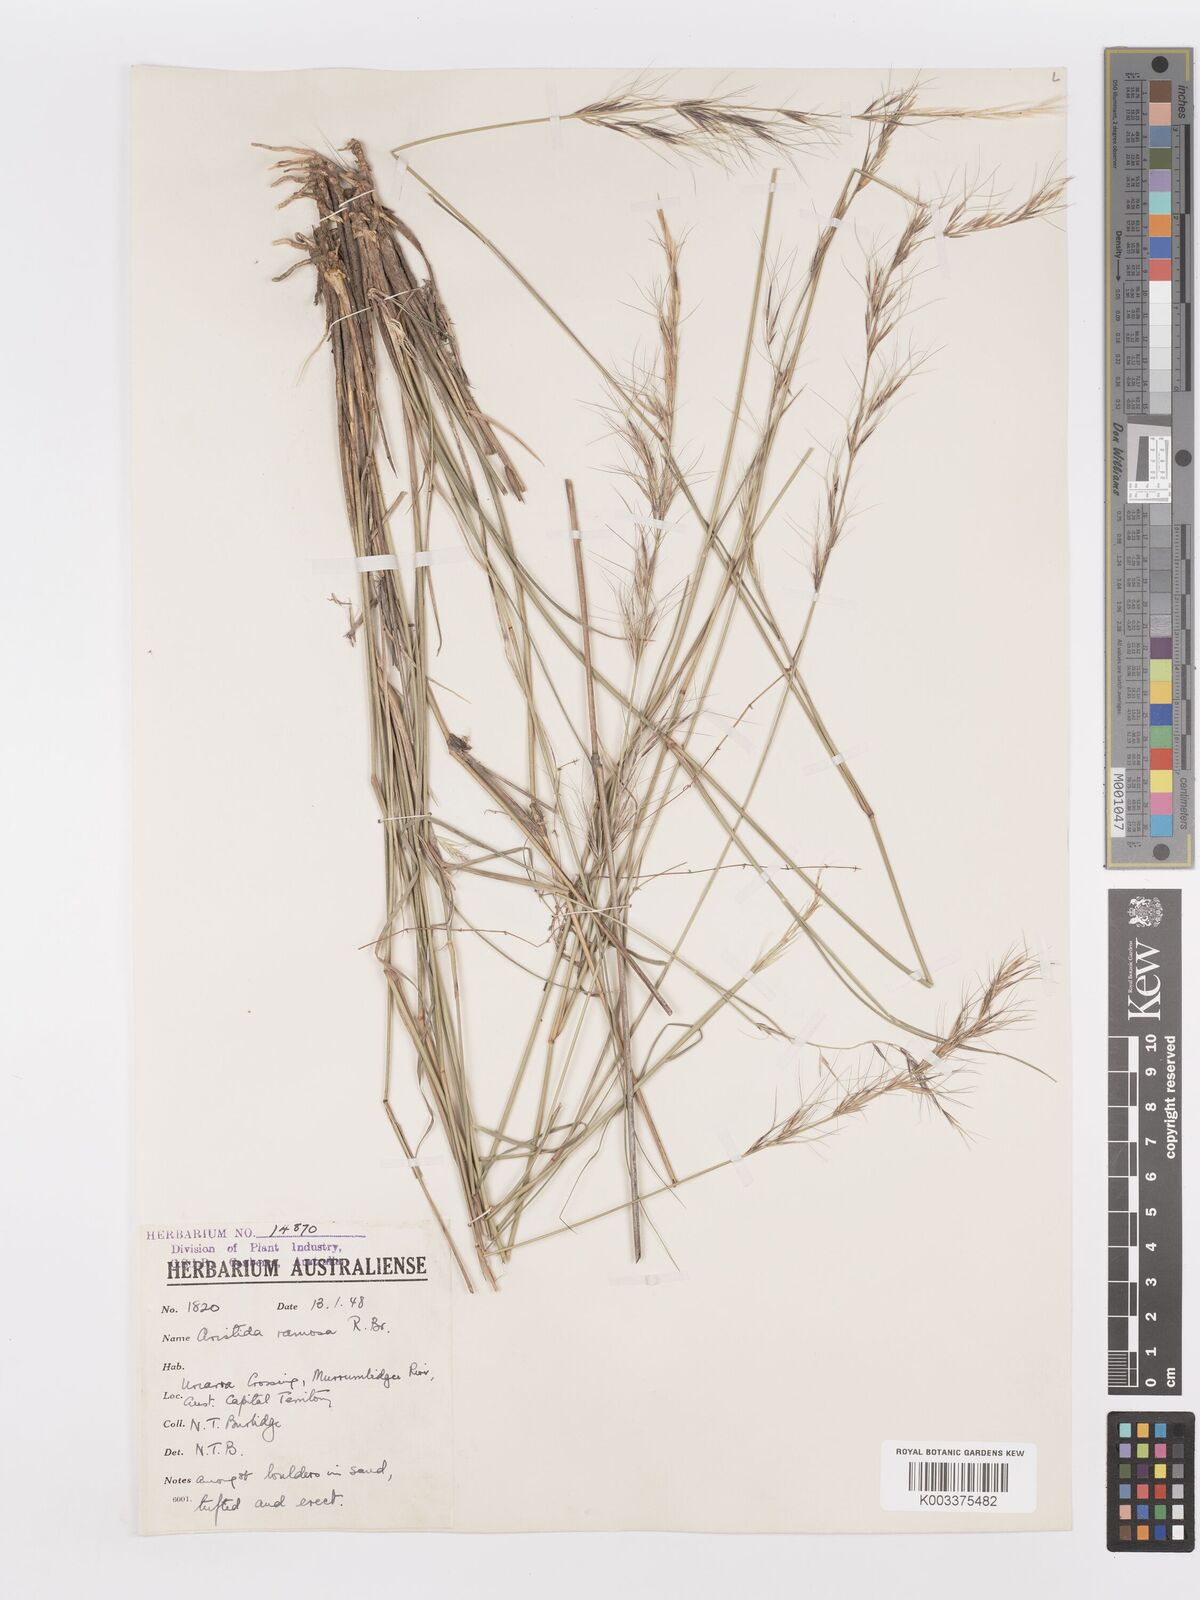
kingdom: Plantae
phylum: Tracheophyta
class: Liliopsida
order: Poales
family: Poaceae
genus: Aristida
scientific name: Aristida ramosa
